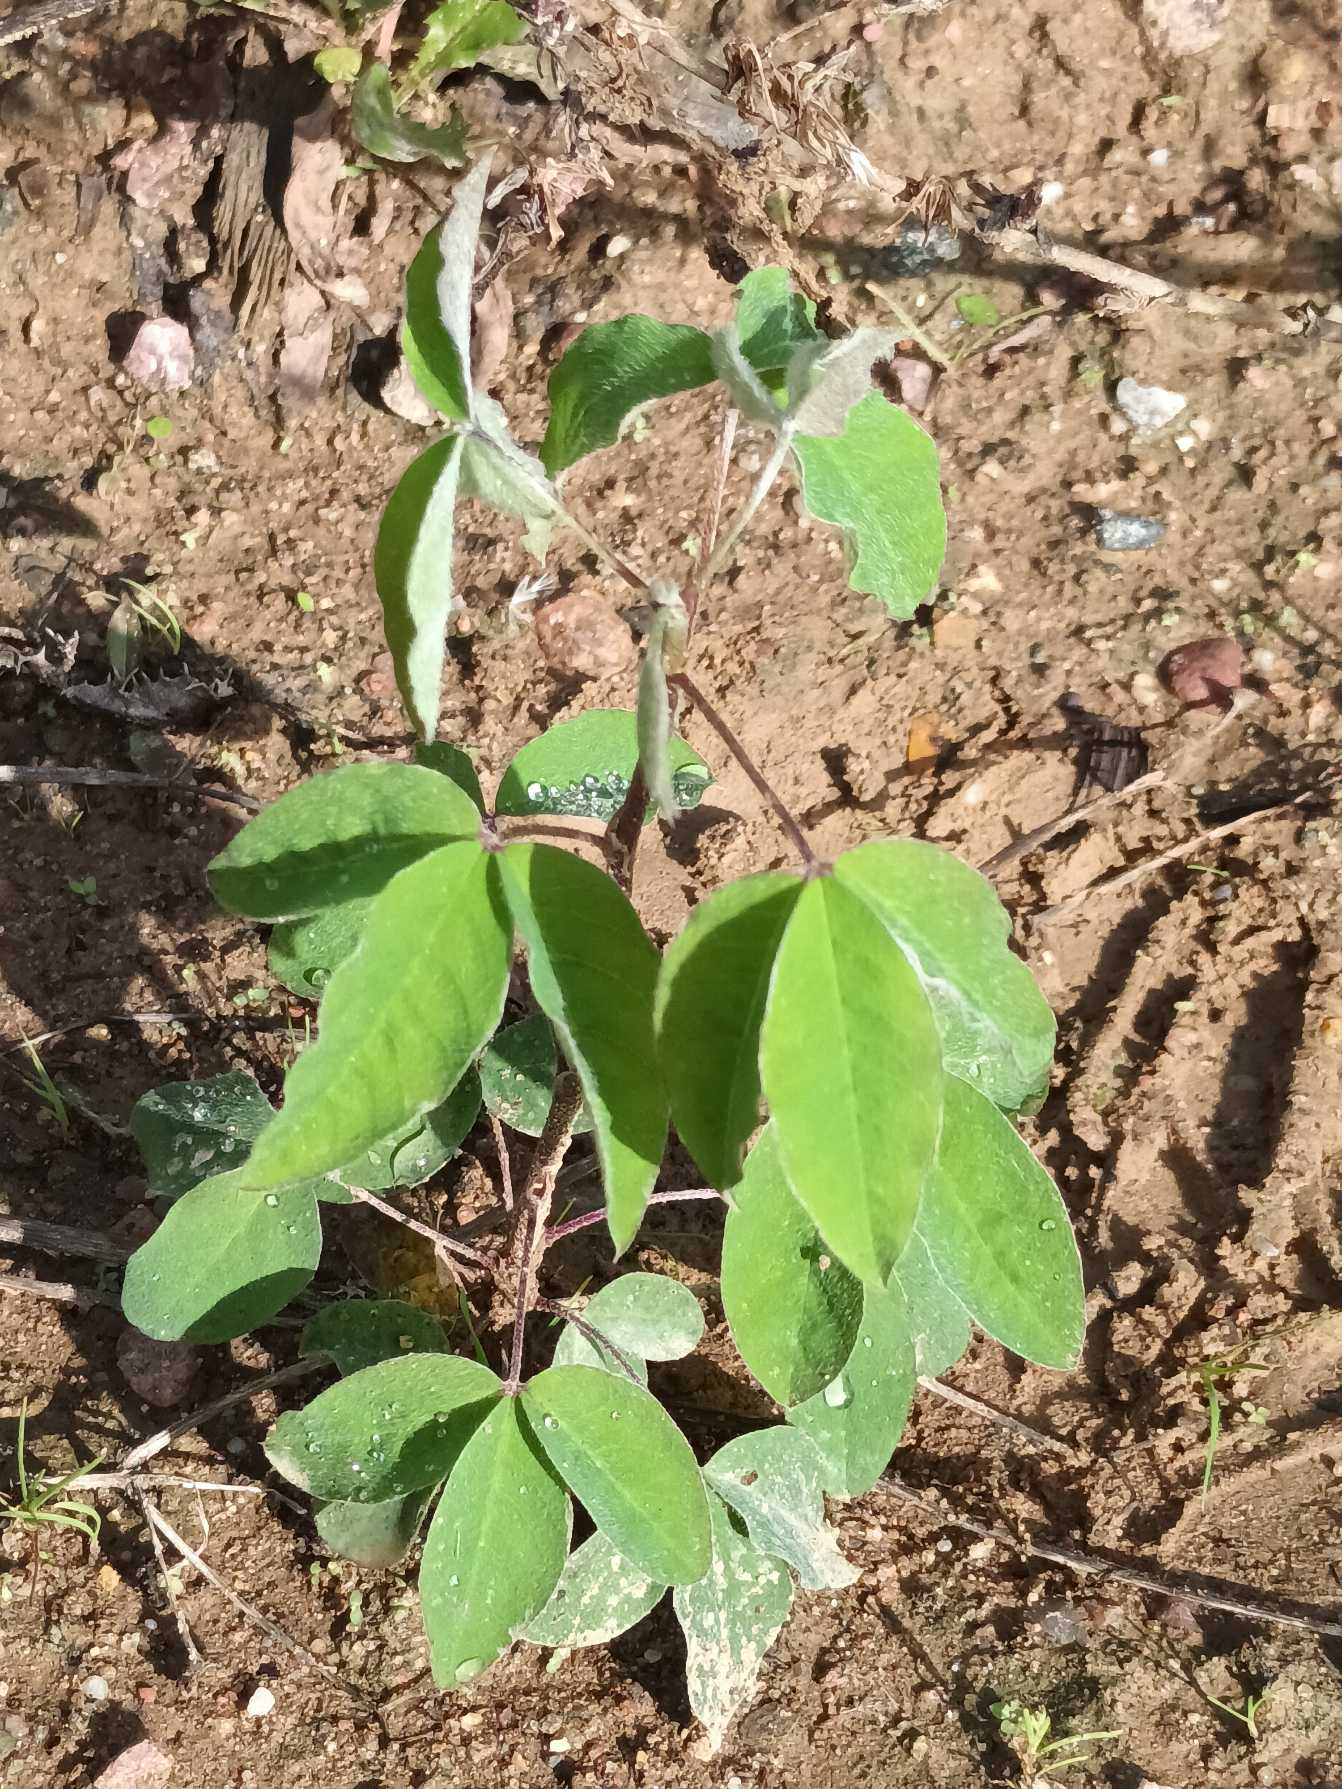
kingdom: Plantae
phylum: Tracheophyta
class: Magnoliopsida
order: Fabales
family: Fabaceae
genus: Laburnum
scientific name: Laburnum anagyroides
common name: Guldregn
